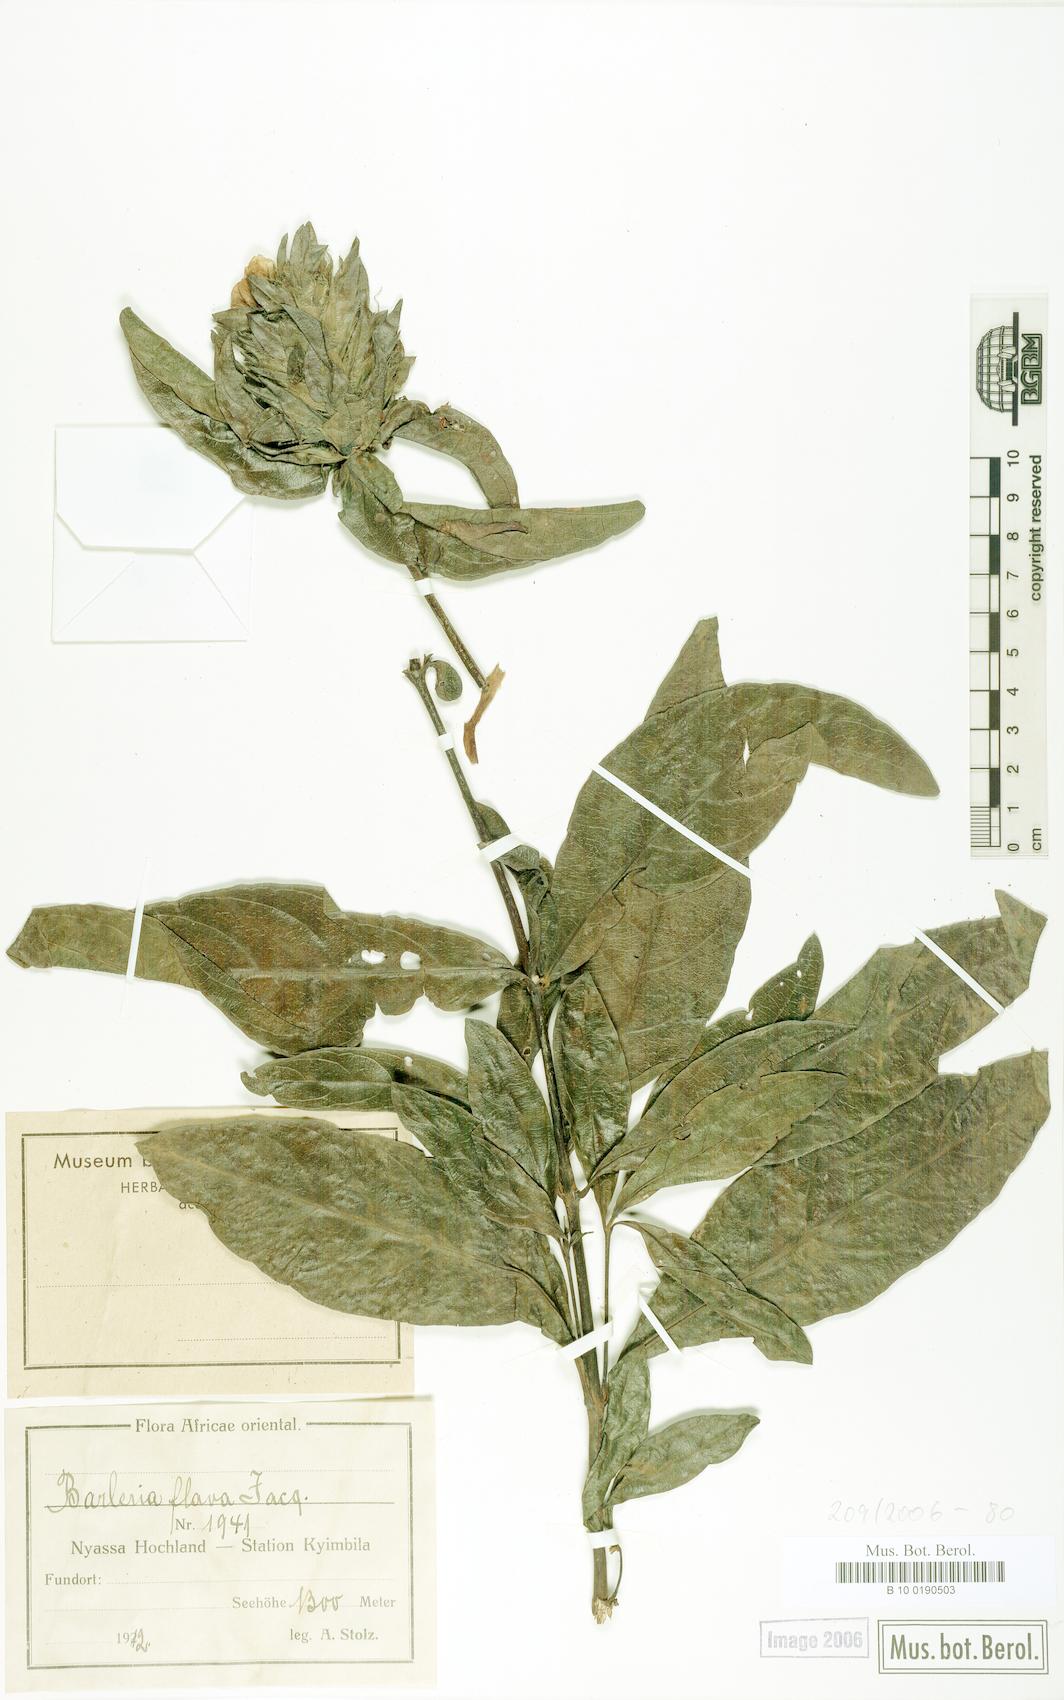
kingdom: Plantae
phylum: Tracheophyta
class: Magnoliopsida
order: Lamiales
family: Acanthaceae
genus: Barleria
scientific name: Barleria oenotheroides
